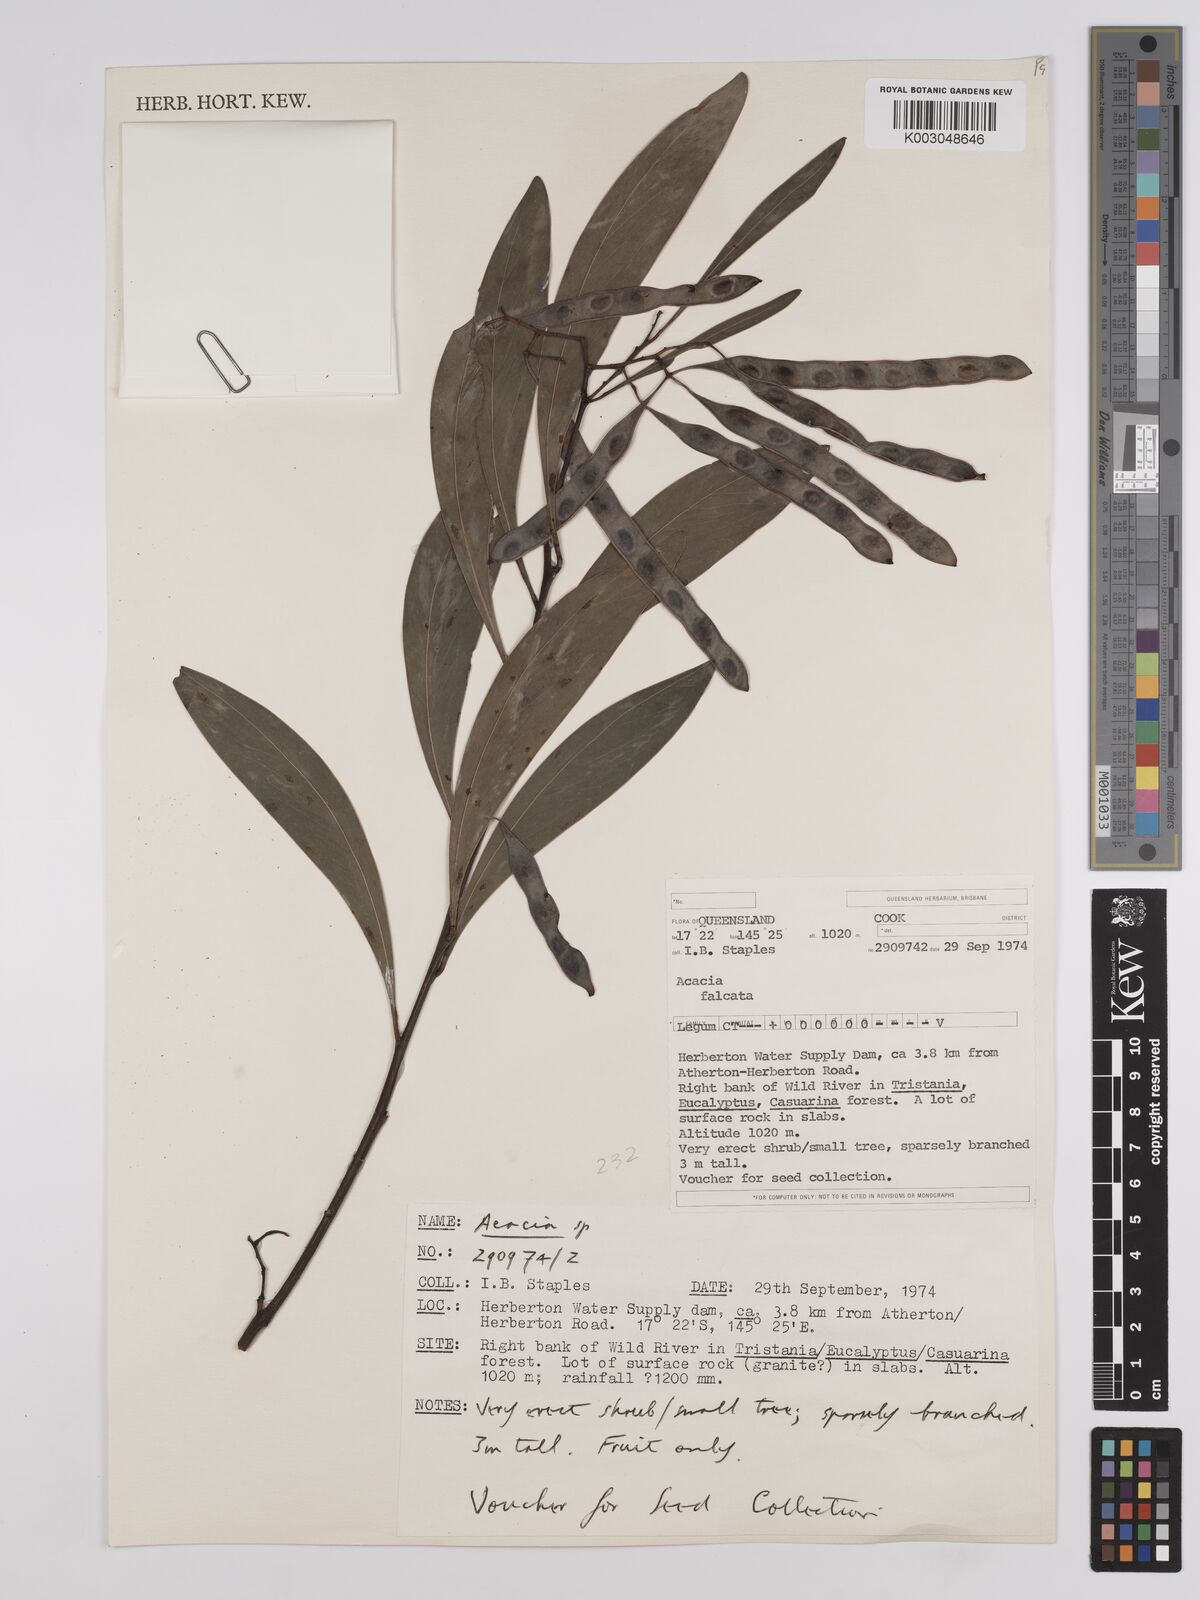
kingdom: Plantae
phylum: Tracheophyta
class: Magnoliopsida
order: Fabales
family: Fabaceae
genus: Acacia
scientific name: Acacia falcata
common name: Burra acacia
